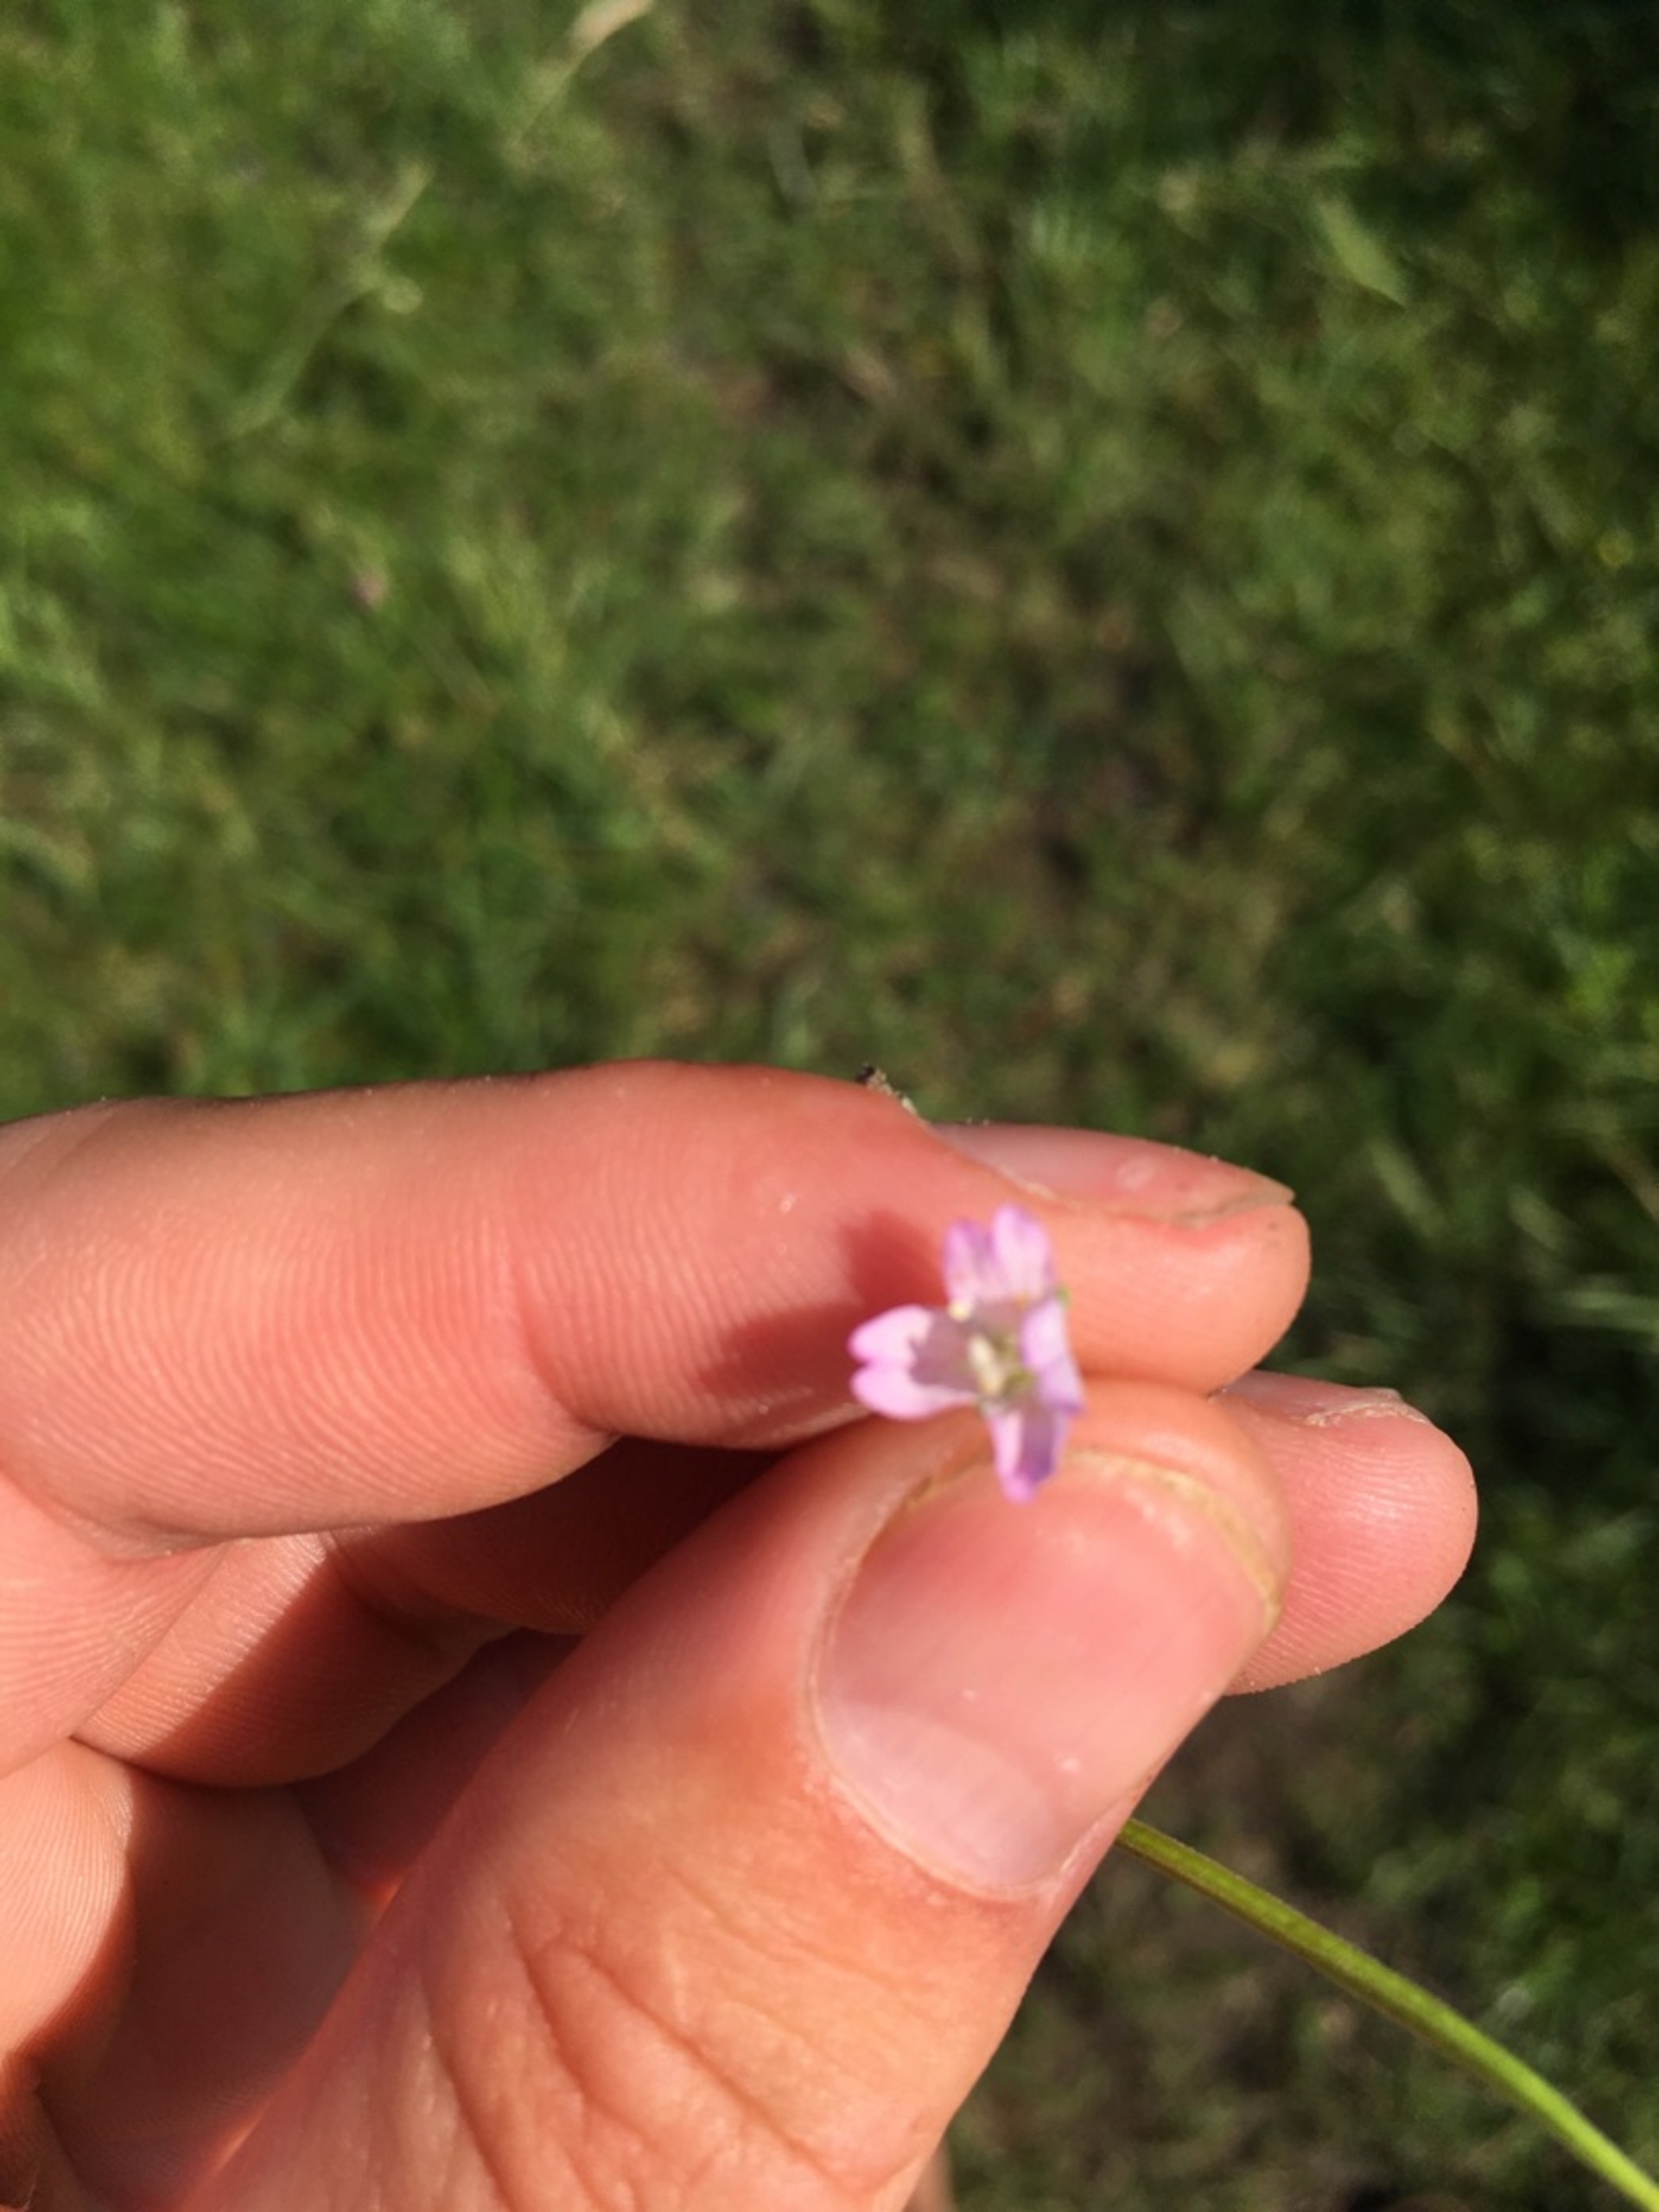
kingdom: Plantae
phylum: Tracheophyta
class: Magnoliopsida
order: Myrtales
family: Onagraceae
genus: Epilobium
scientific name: Epilobium montanum
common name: Glat dueurt
